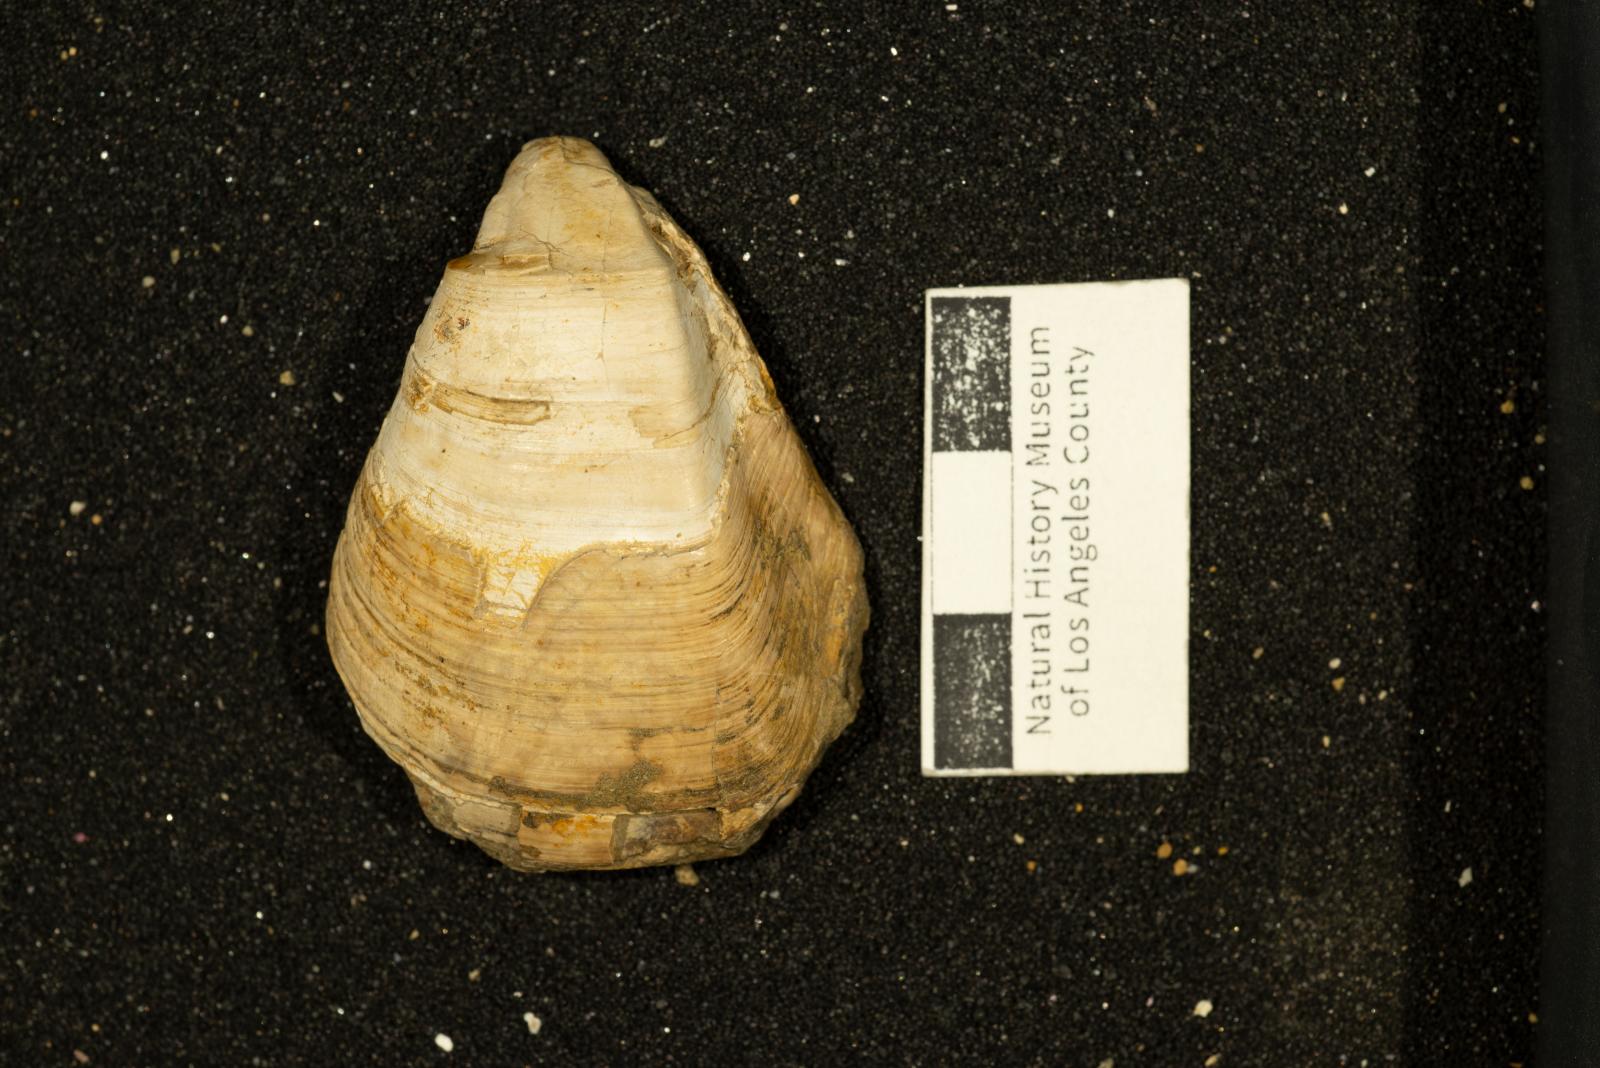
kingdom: Animalia
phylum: Mollusca
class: Bivalvia
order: Carditida
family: Astartidae
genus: Opis
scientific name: Opis anae
